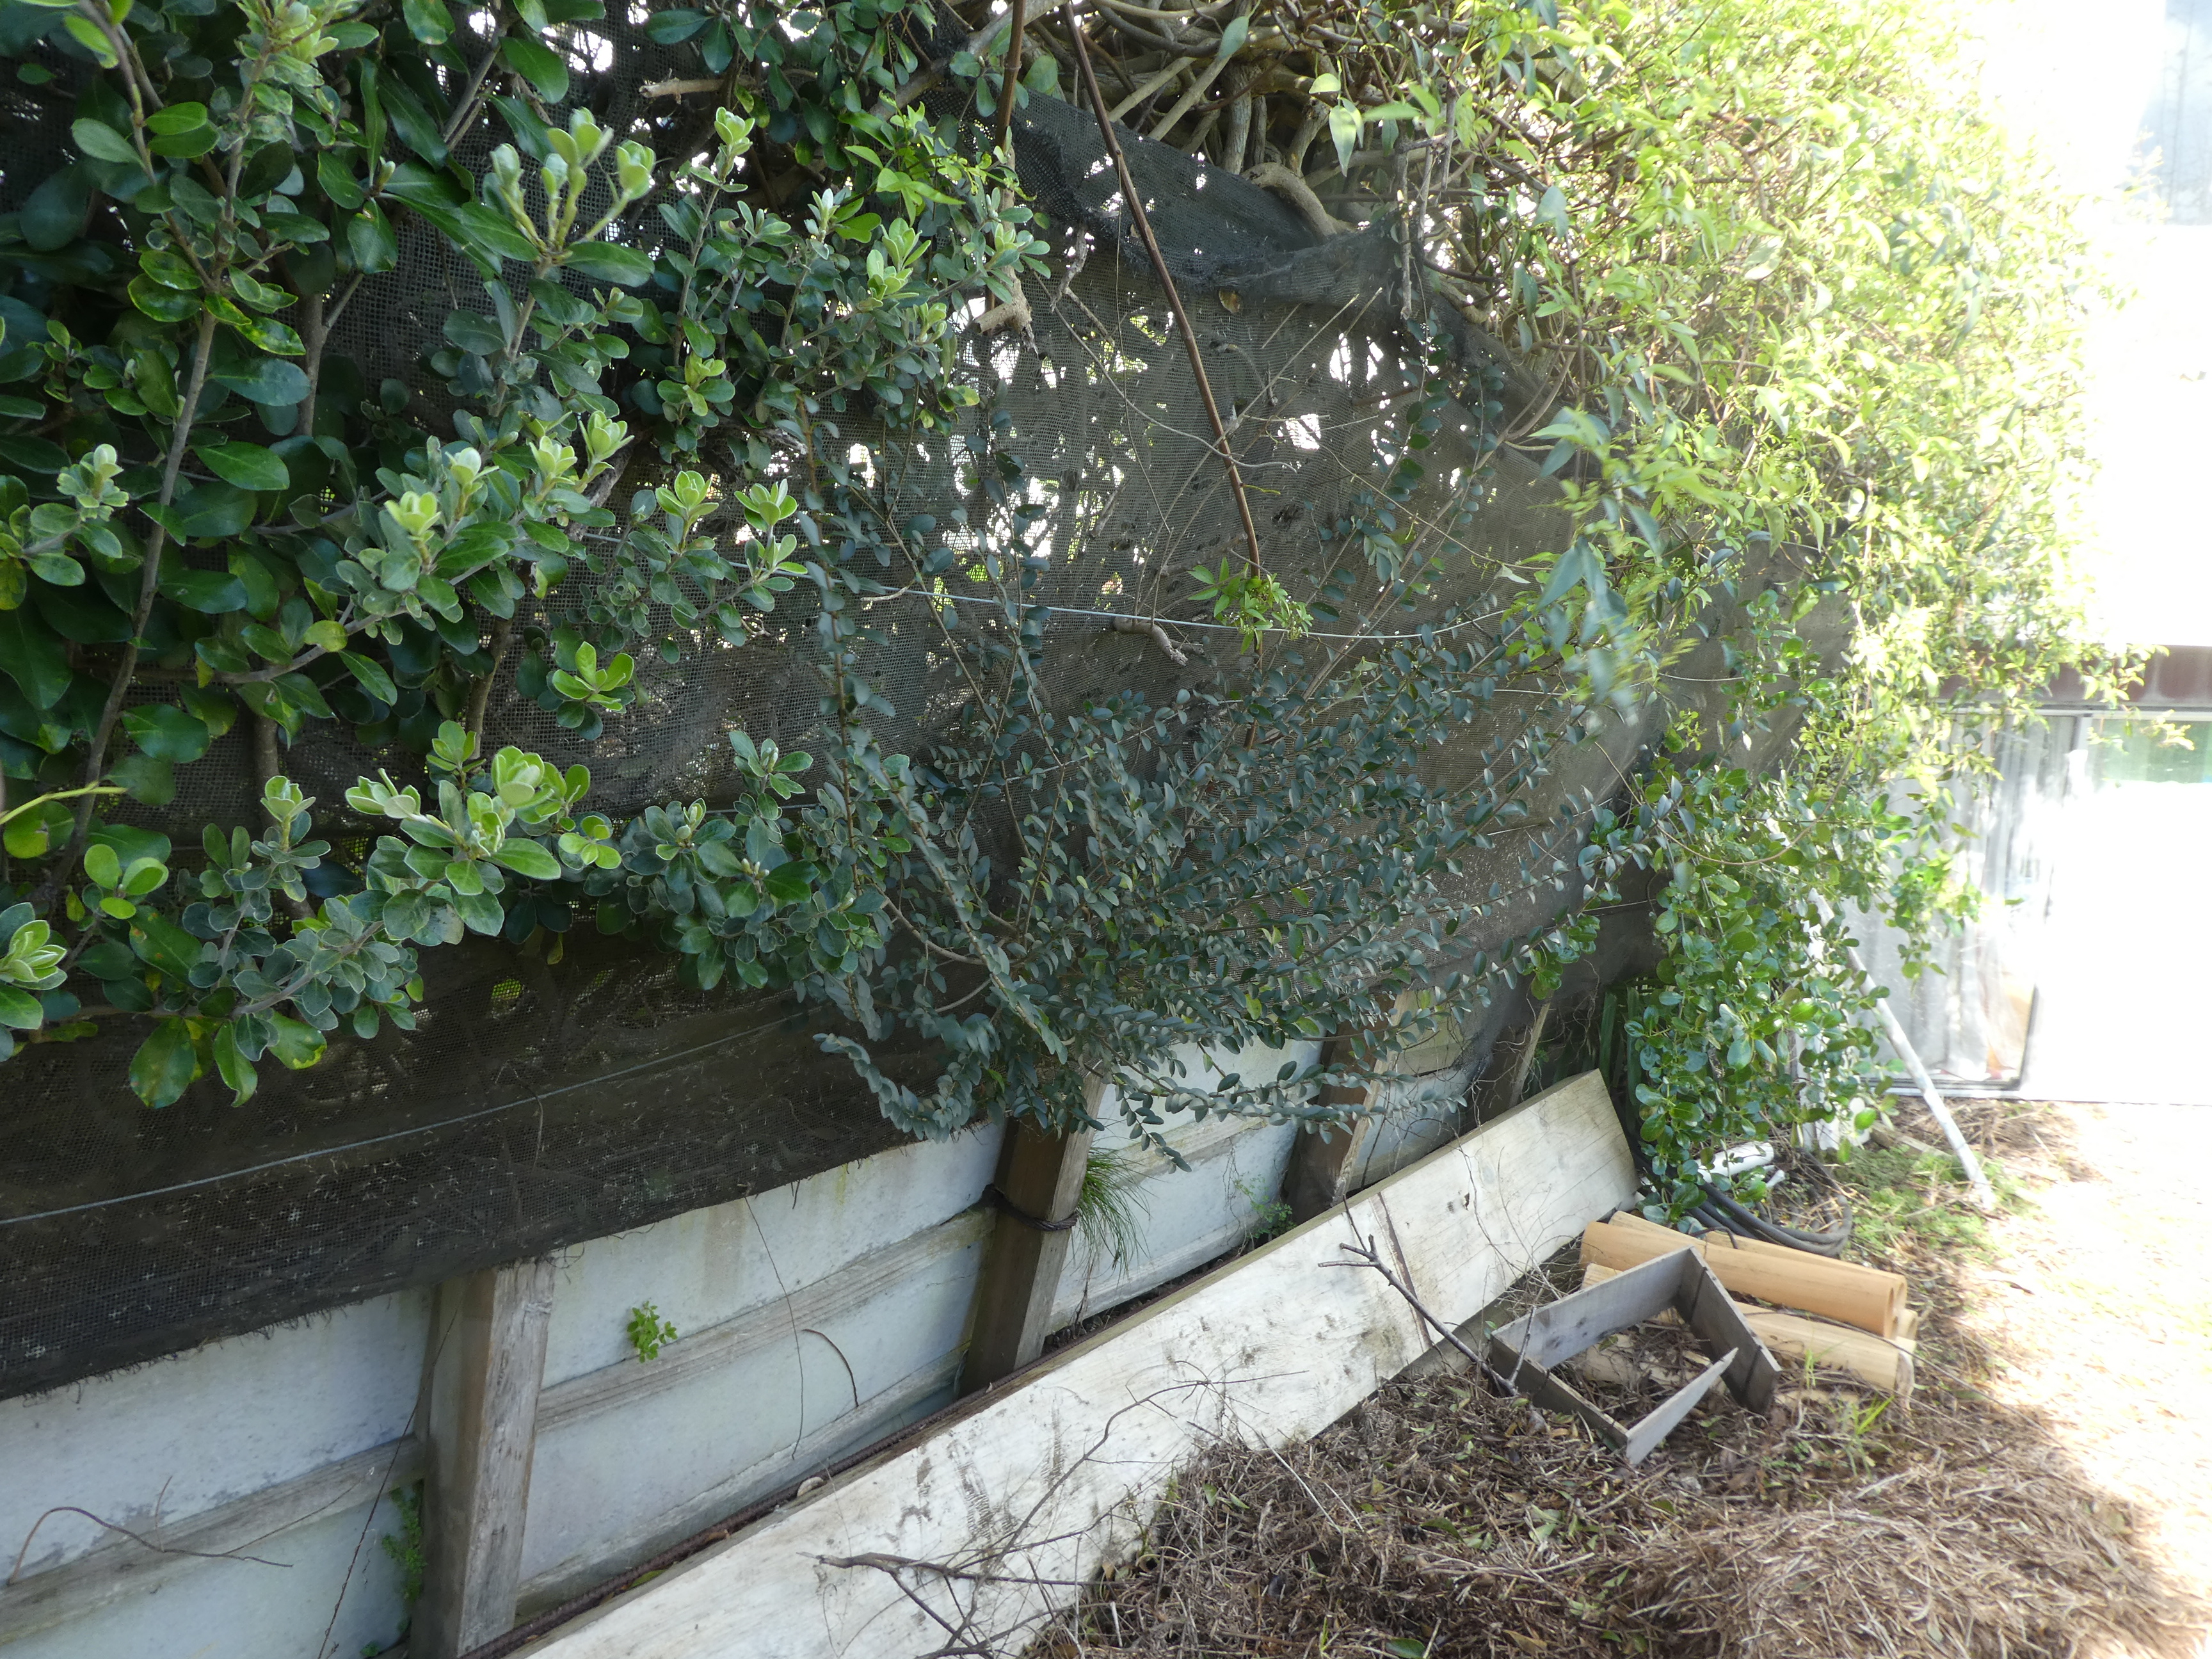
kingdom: Plantae
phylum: Tracheophyta
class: Magnoliopsida
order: Lamiales
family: Oleaceae
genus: Ligustrum
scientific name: Ligustrum sinense
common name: Chinese privet
